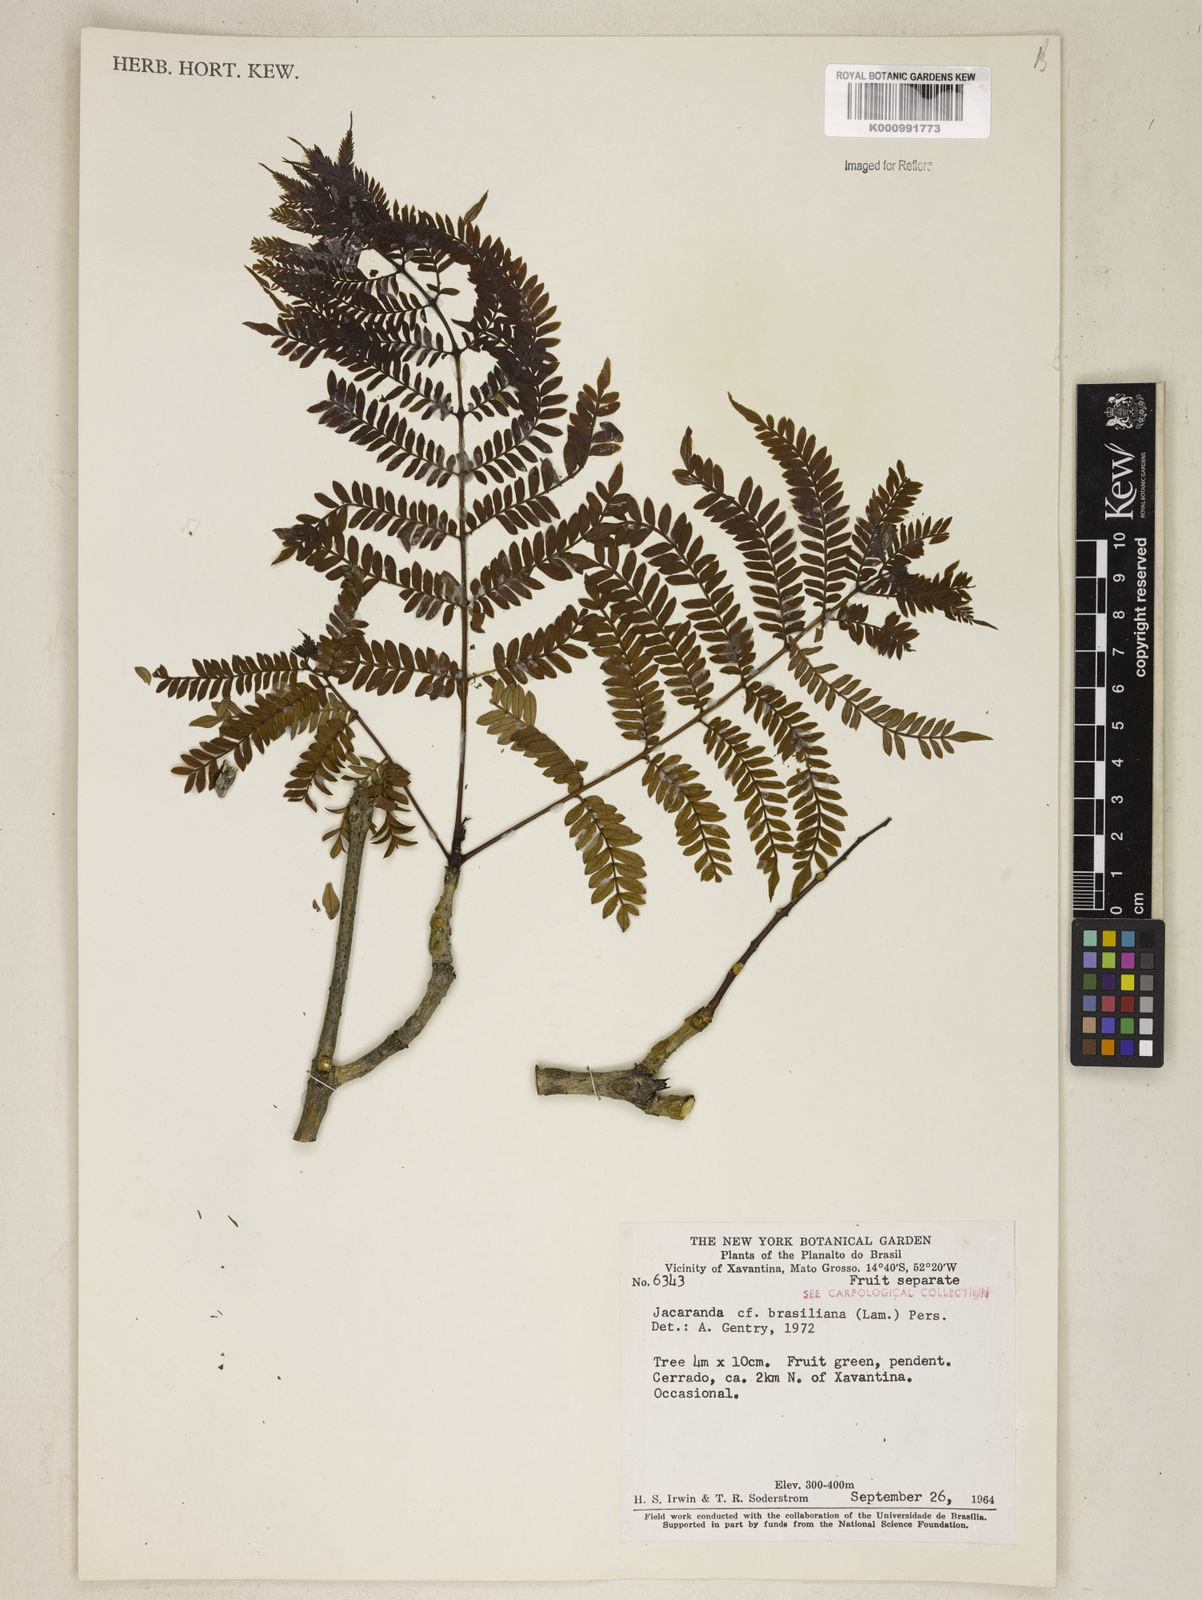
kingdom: Plantae
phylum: Tracheophyta
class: Magnoliopsida
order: Lamiales
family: Bignoniaceae
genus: Jacaranda
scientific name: Jacaranda brasiliana
